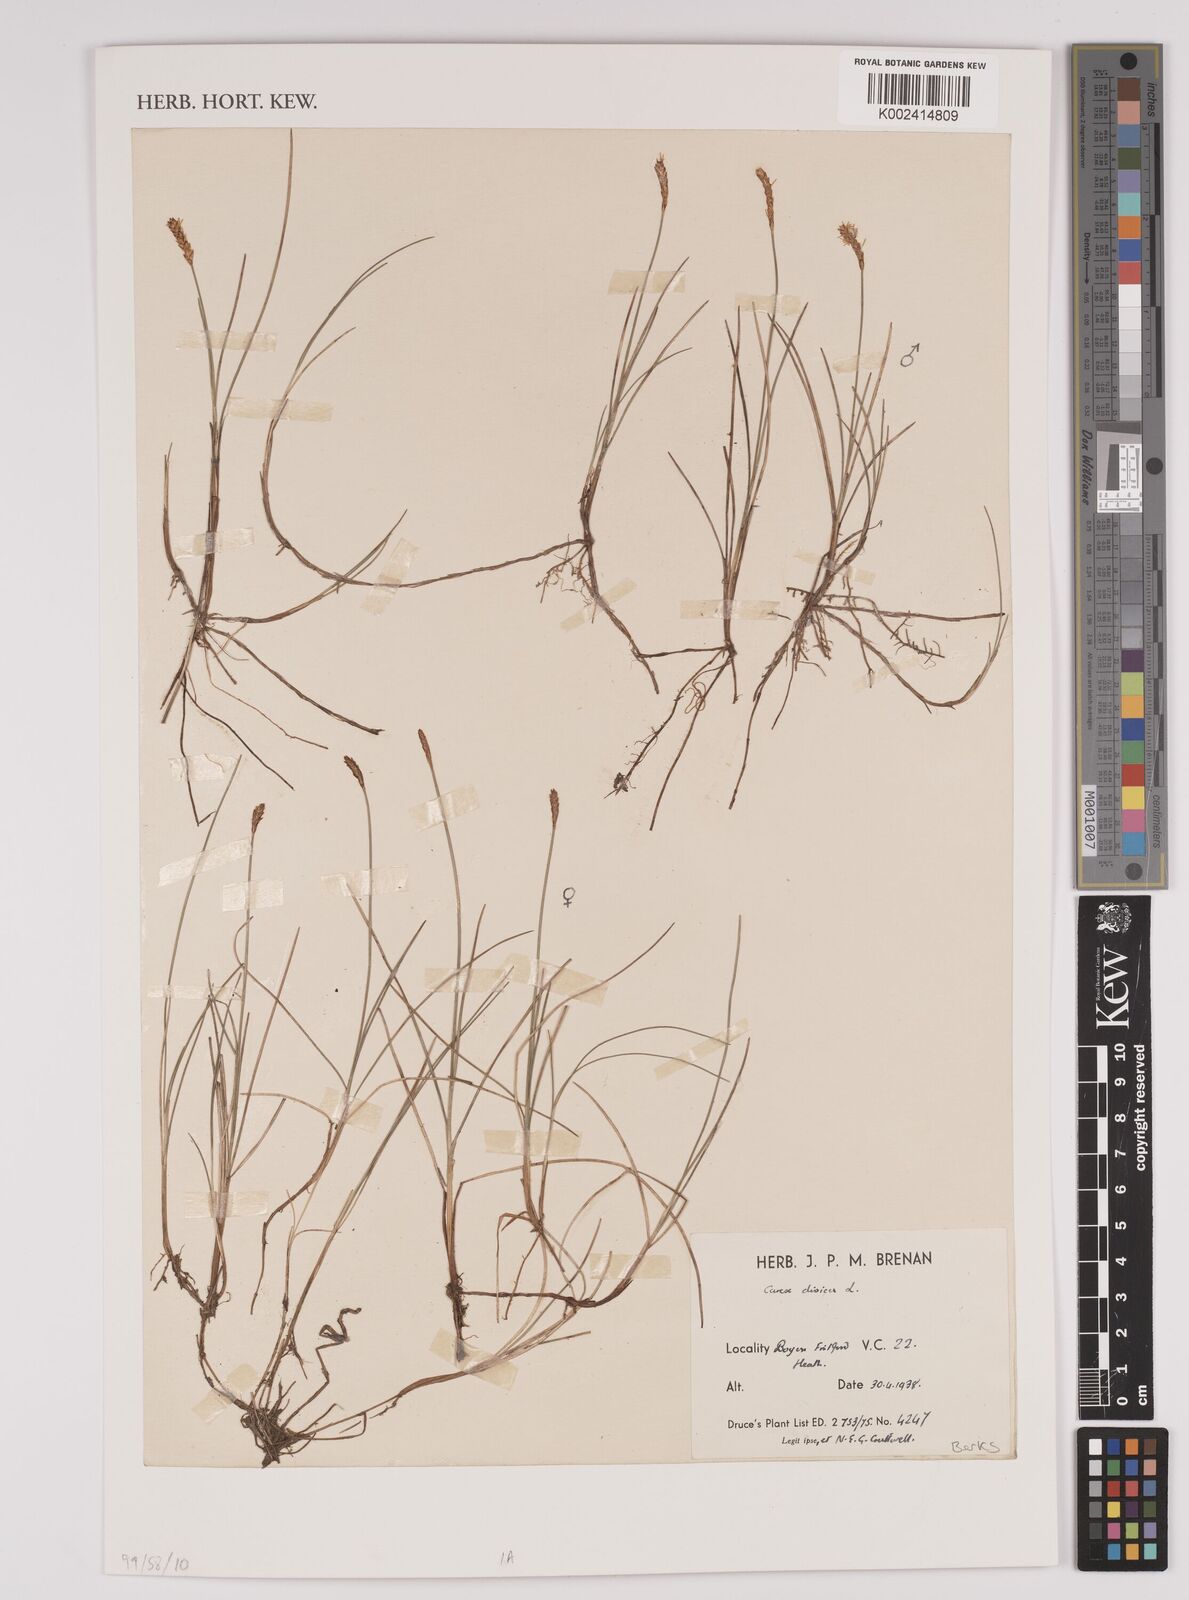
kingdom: Plantae
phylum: Tracheophyta
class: Liliopsida
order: Poales
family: Cyperaceae
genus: Carex
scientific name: Carex
